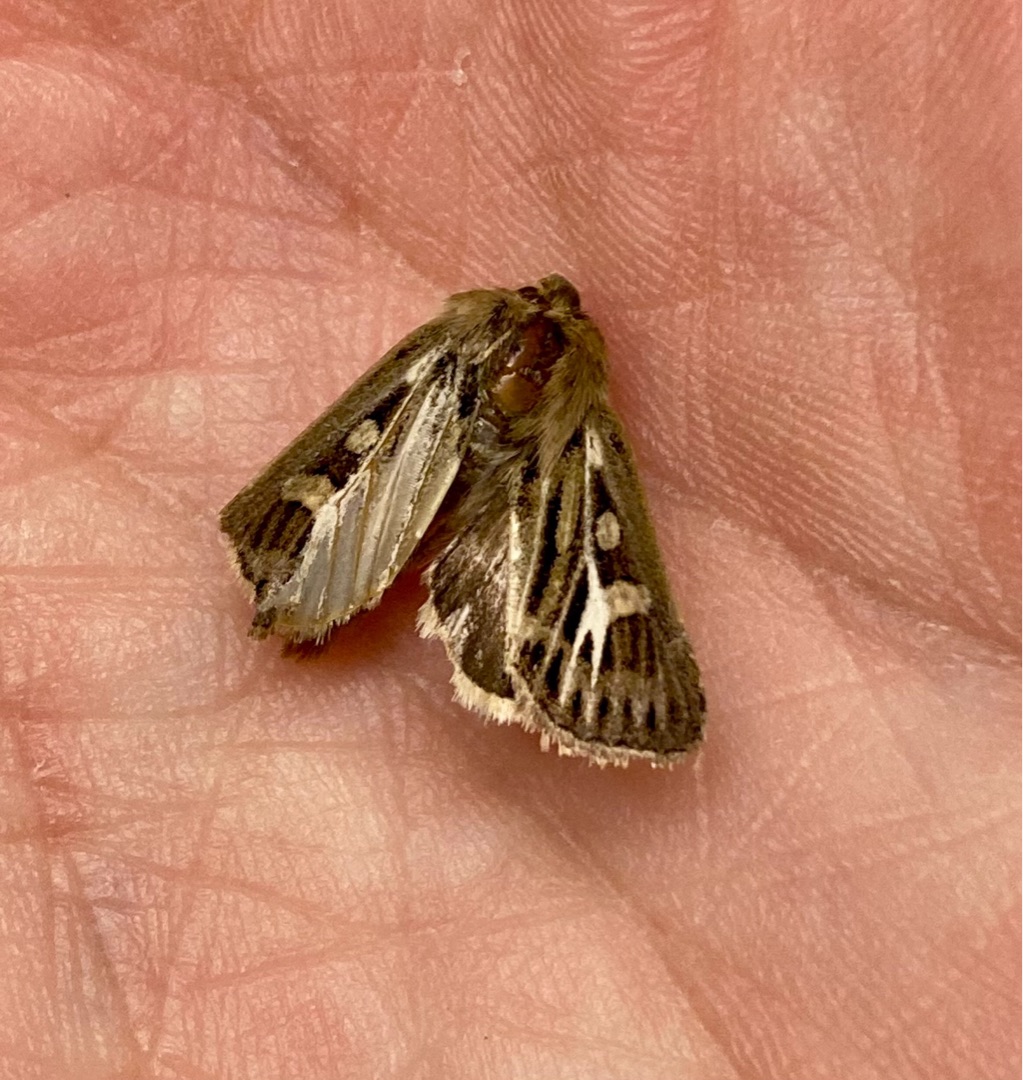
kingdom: Animalia
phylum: Arthropoda
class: Insecta
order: Lepidoptera
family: Noctuidae
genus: Cerapteryx
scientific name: Cerapteryx graminis
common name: Mosebunkeugle
